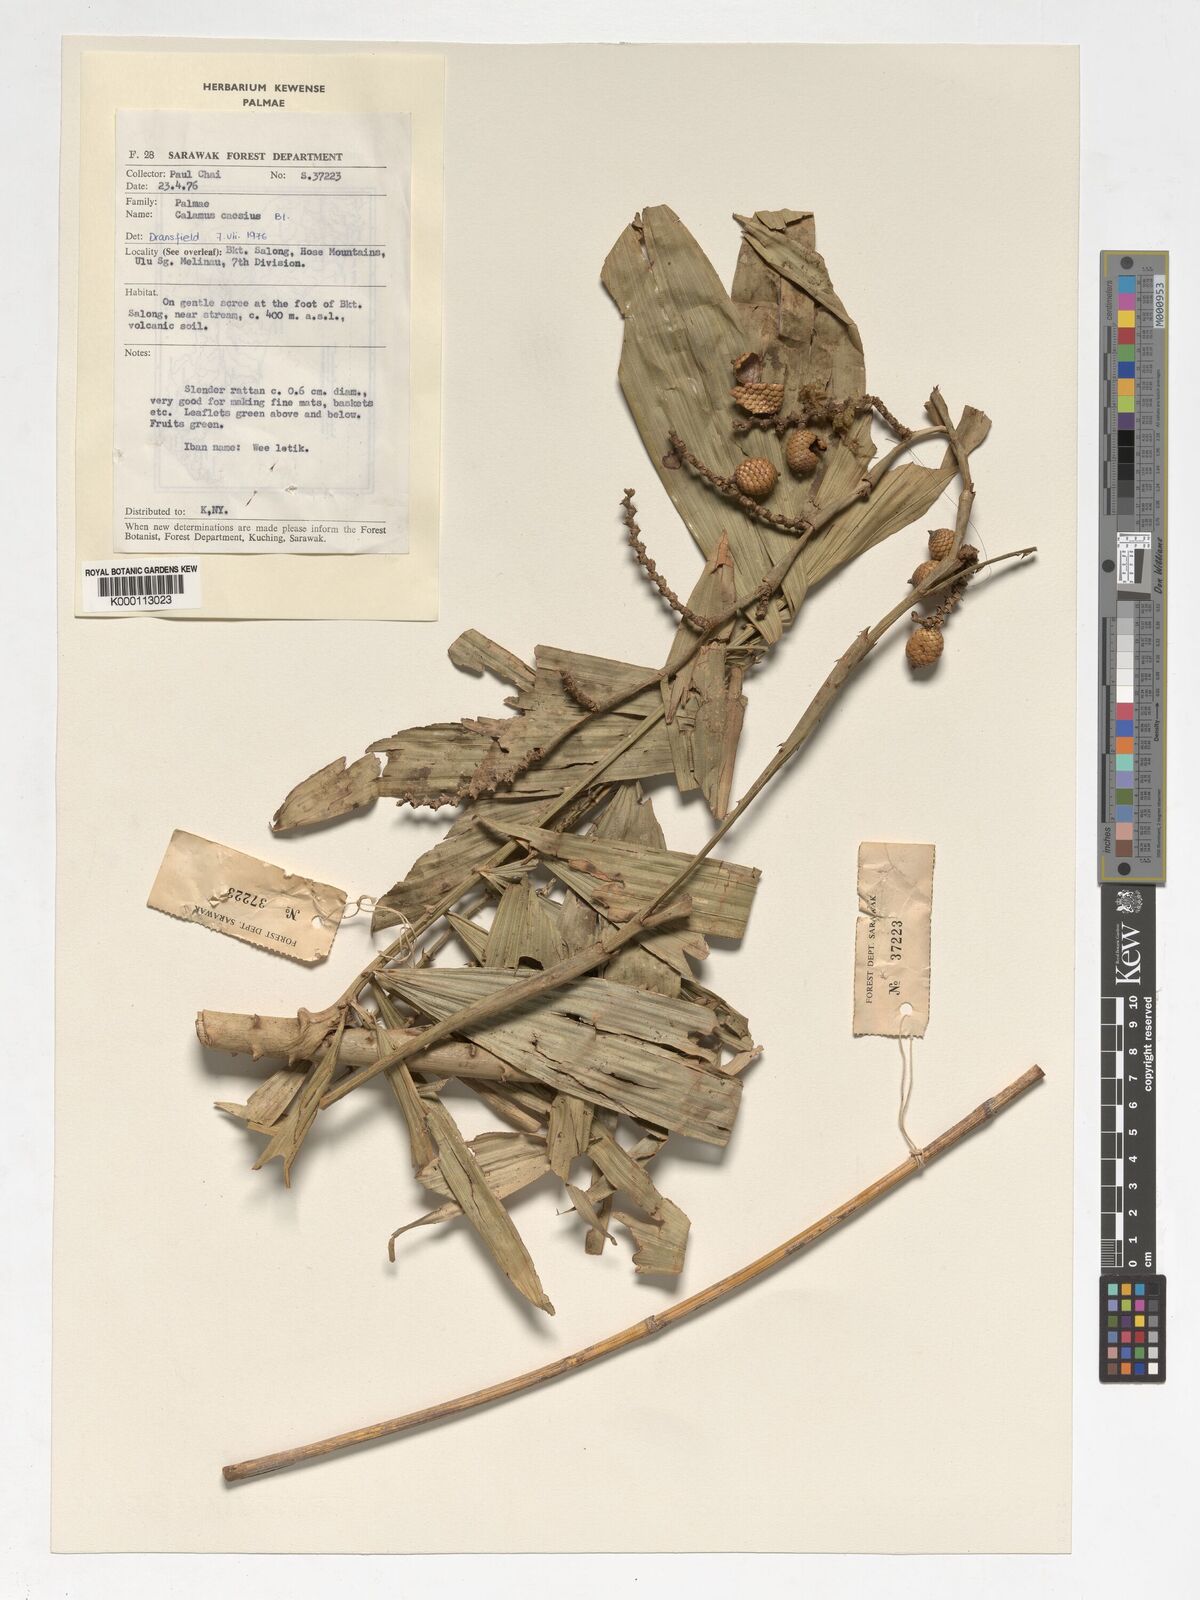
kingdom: Plantae
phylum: Tracheophyta
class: Liliopsida
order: Arecales
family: Arecaceae
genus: Calamus
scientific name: Calamus caesius
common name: Rattan palm
